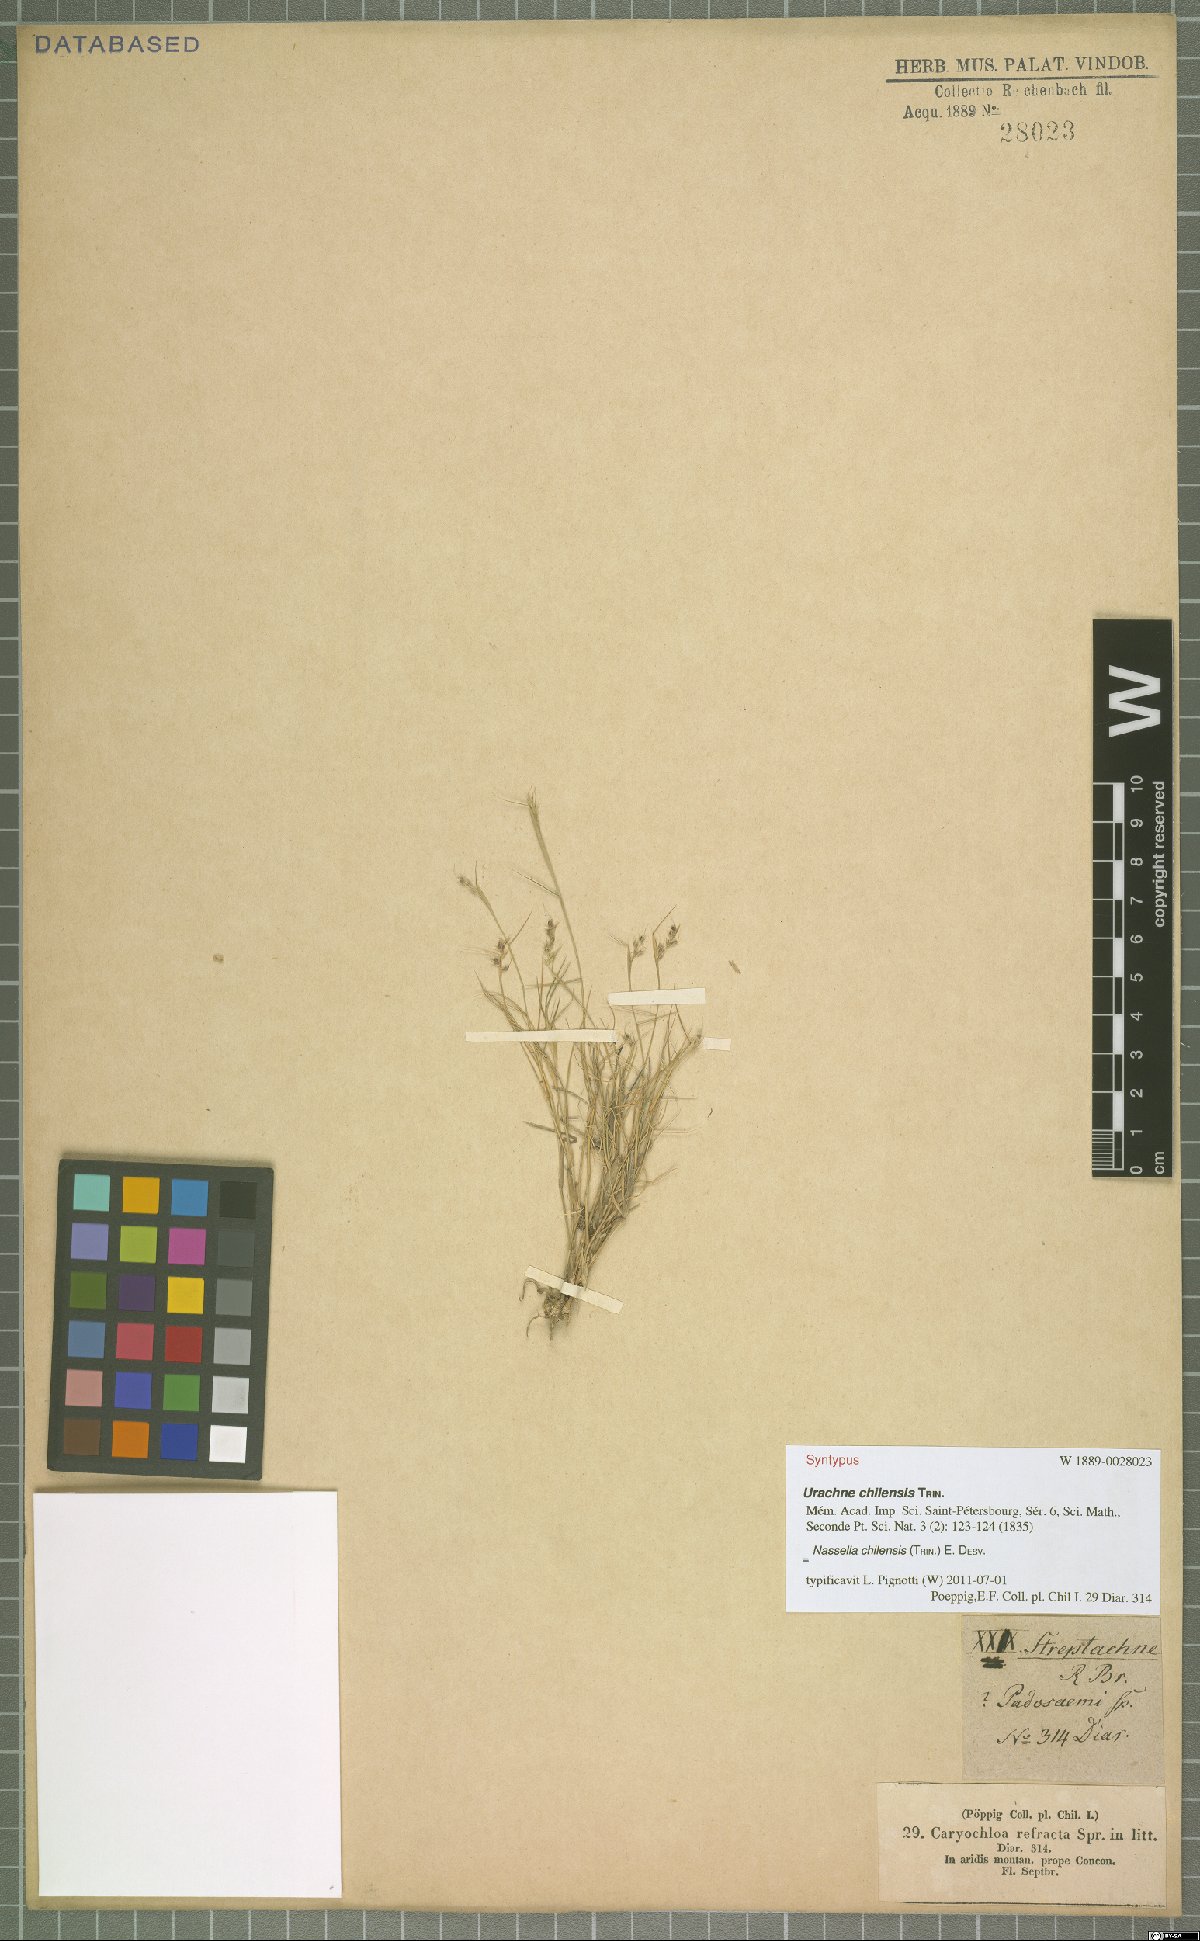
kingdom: Plantae
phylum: Tracheophyta
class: Liliopsida
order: Poales
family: Poaceae
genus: Nassella
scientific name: Nassella chilensis
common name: Chilean needlegrass
